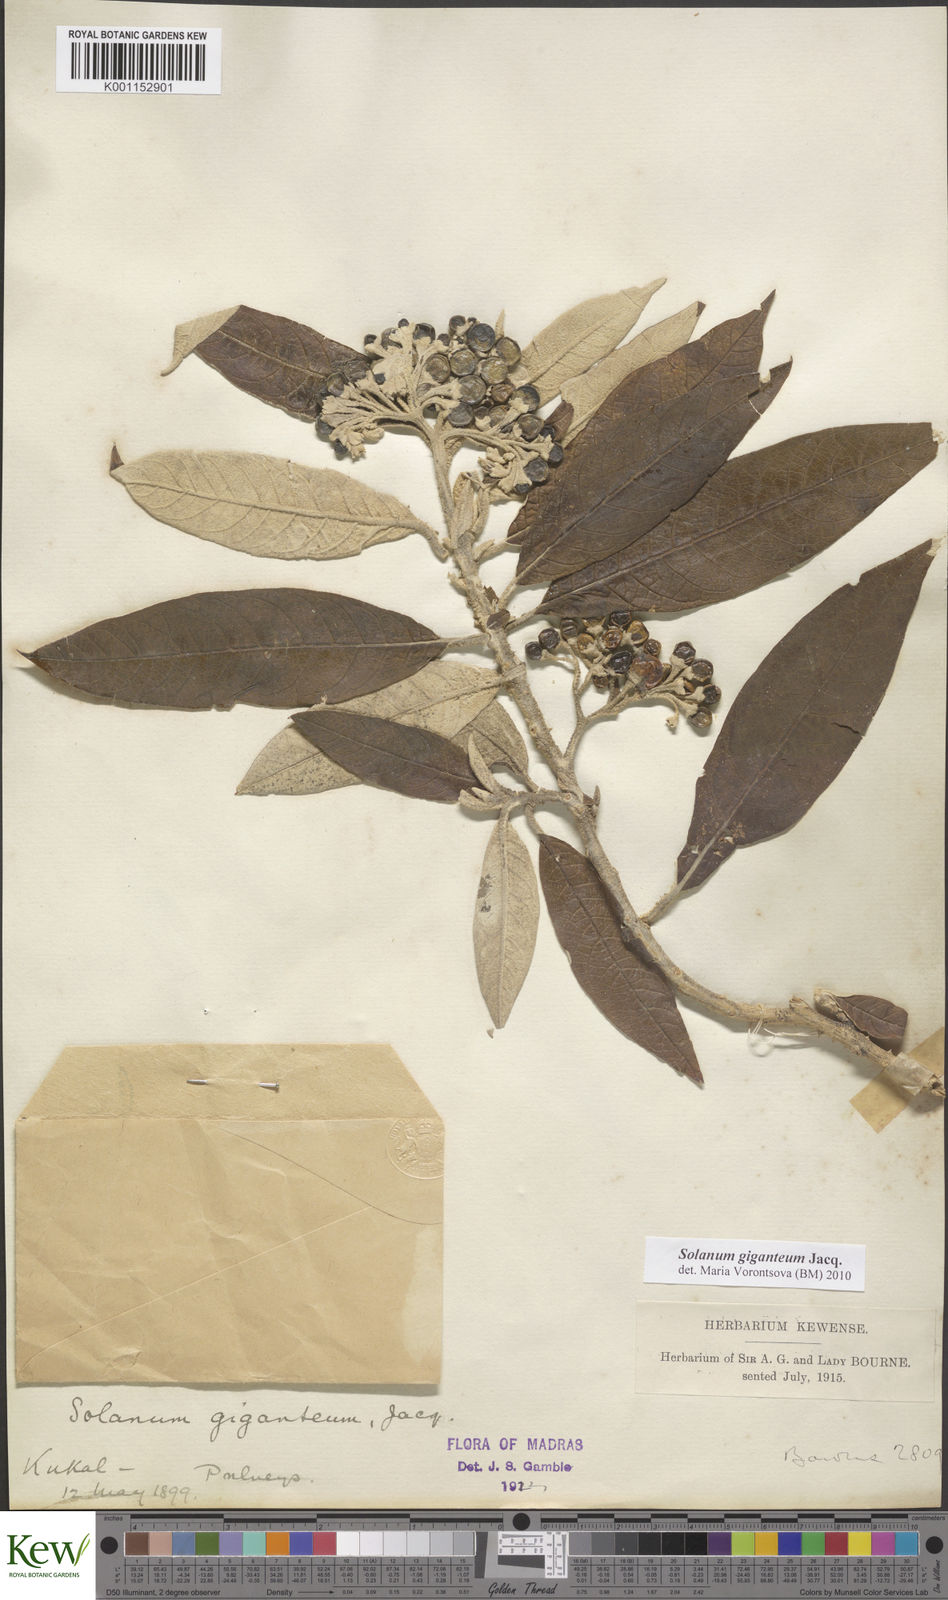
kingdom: Plantae
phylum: Tracheophyta
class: Magnoliopsida
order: Solanales
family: Solanaceae
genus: Solanum
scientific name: Solanum giganteum
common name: Healing-leaf-tree
